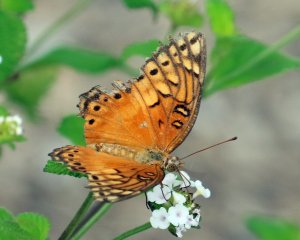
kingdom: Animalia
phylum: Arthropoda
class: Insecta
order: Lepidoptera
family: Nymphalidae
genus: Euptoieta
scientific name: Euptoieta hegesia
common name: Mexican Fritillary
